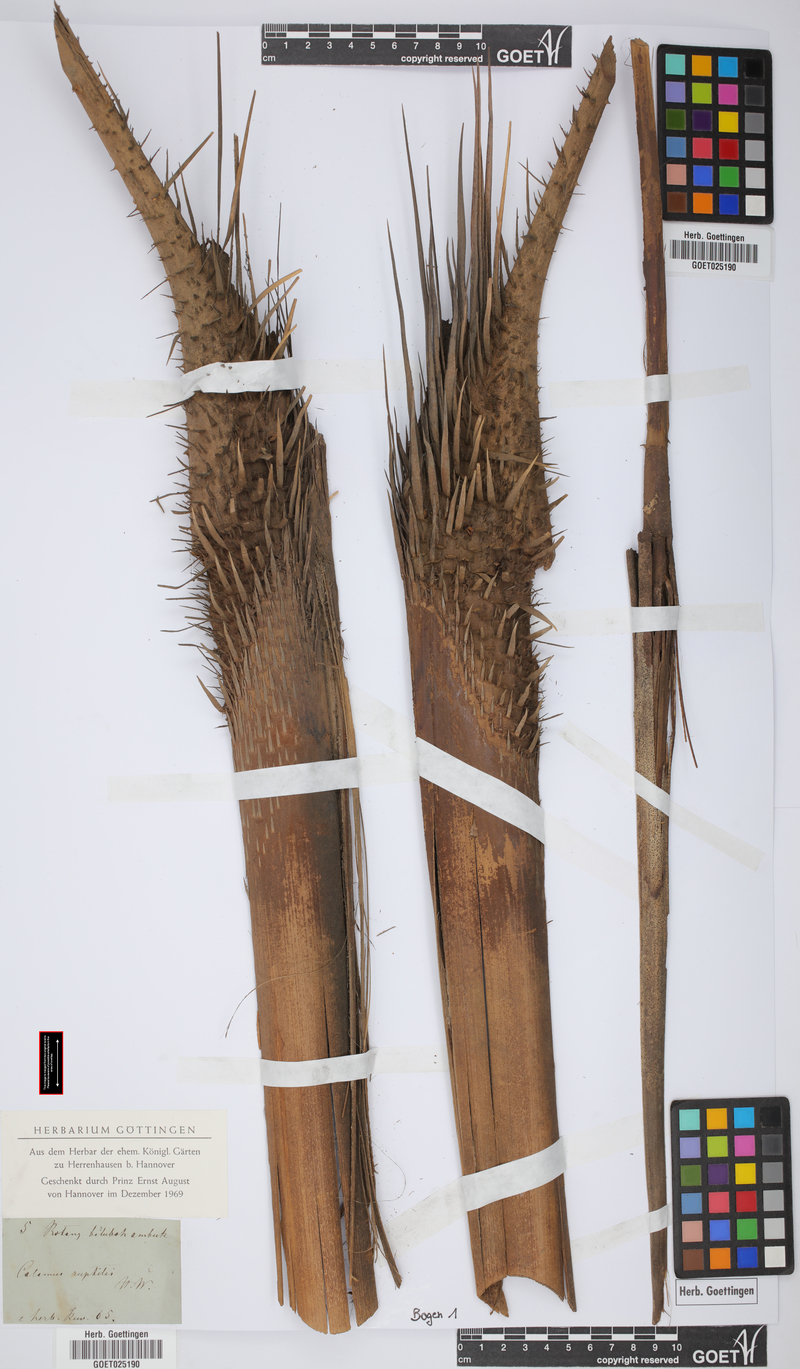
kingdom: Plantae
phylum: Tracheophyta
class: Liliopsida
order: Arecales
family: Arecaceae
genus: Calamus
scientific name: Calamus ruptilis
